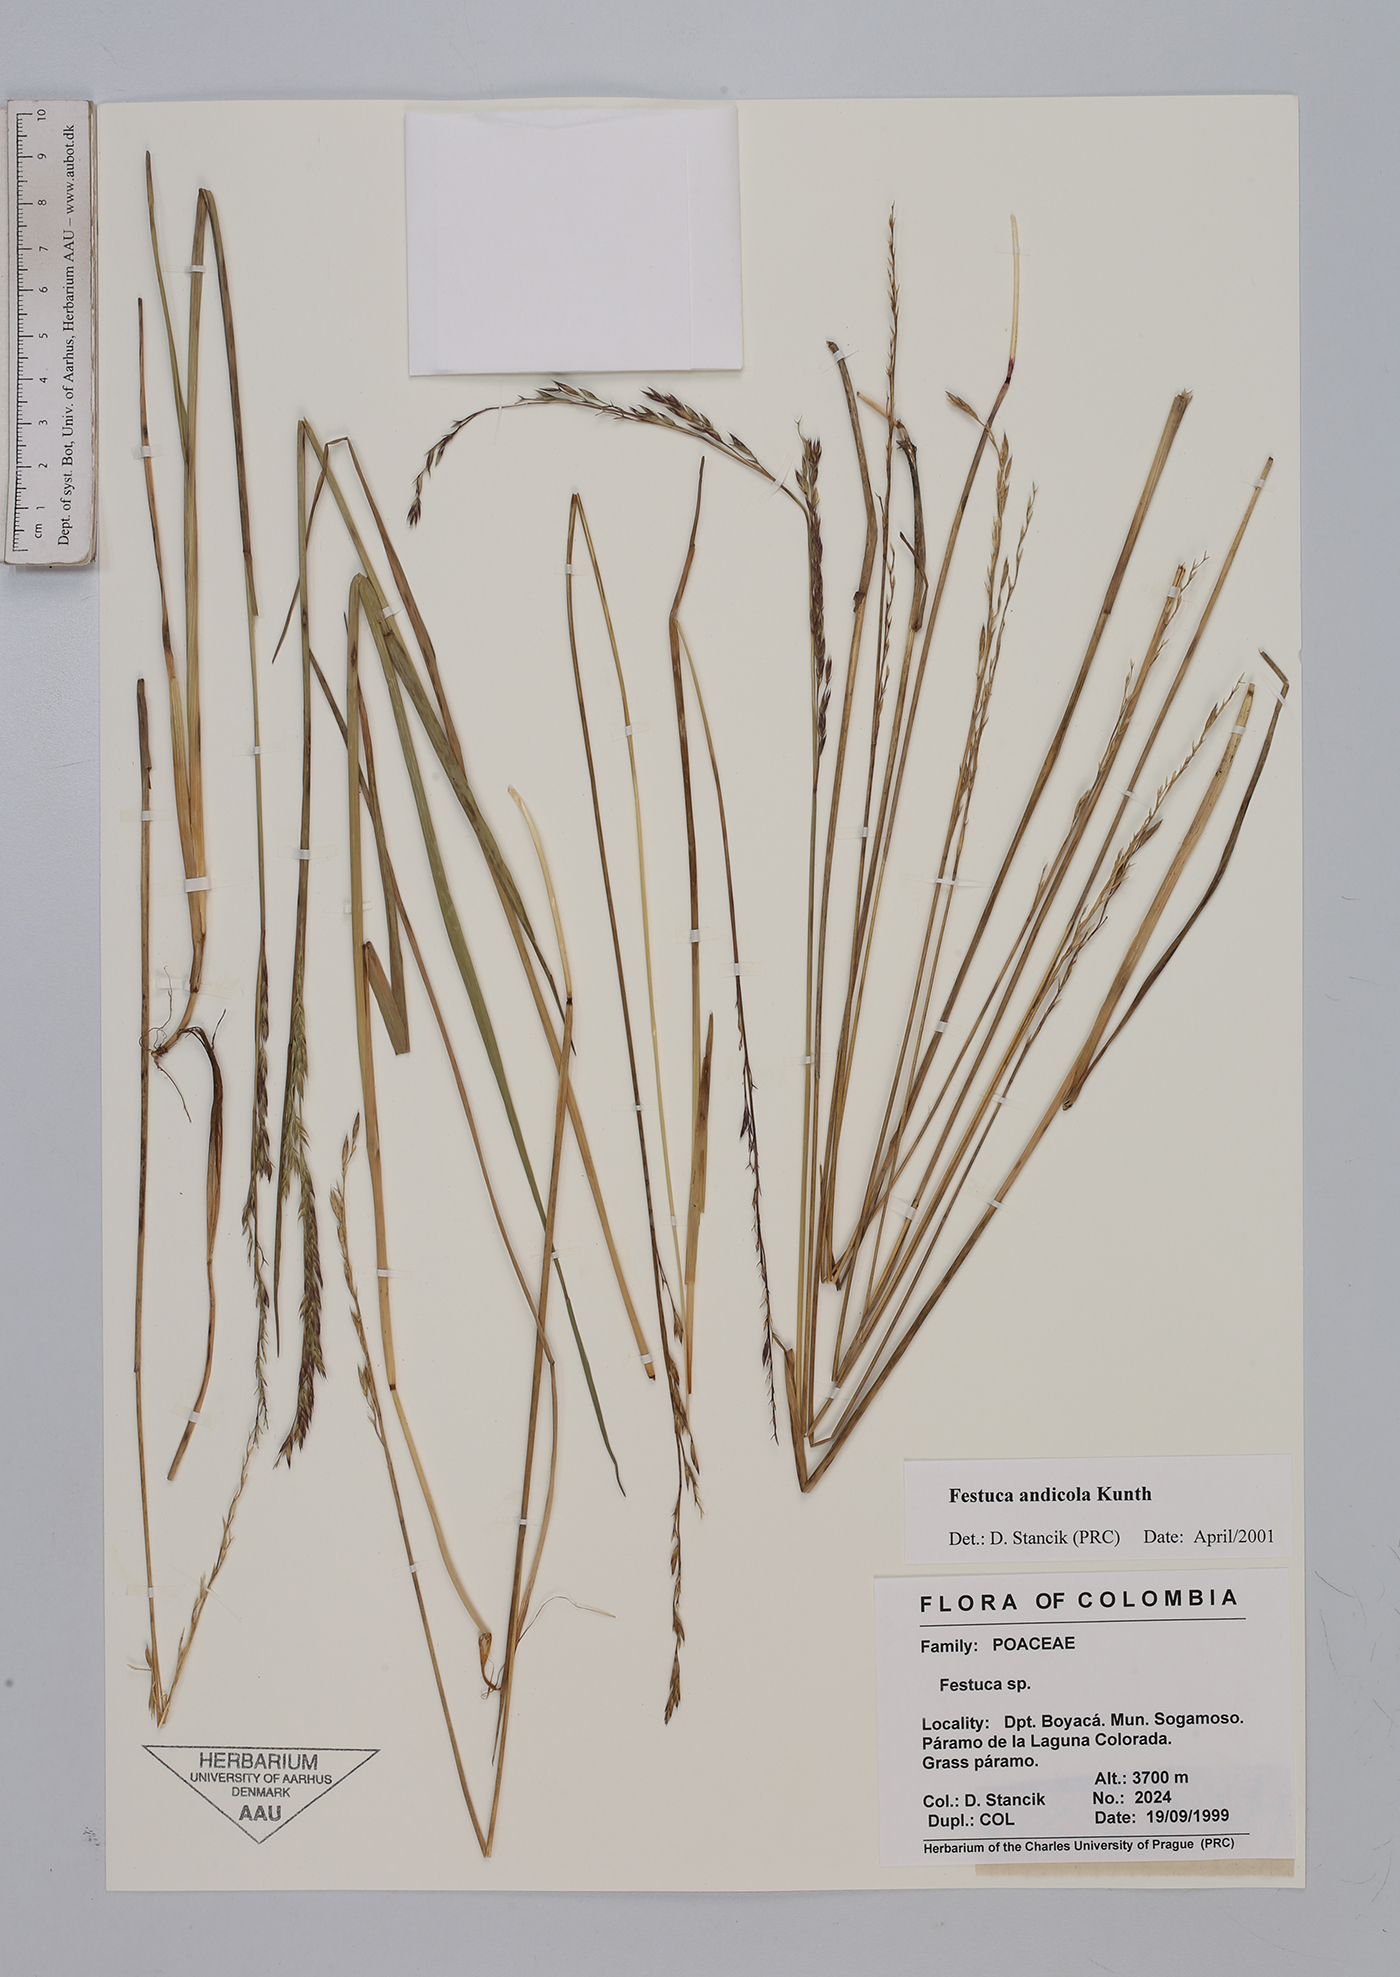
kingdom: Plantae
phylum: Tracheophyta
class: Liliopsida
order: Poales
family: Poaceae
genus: Festuca
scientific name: Festuca andicola
